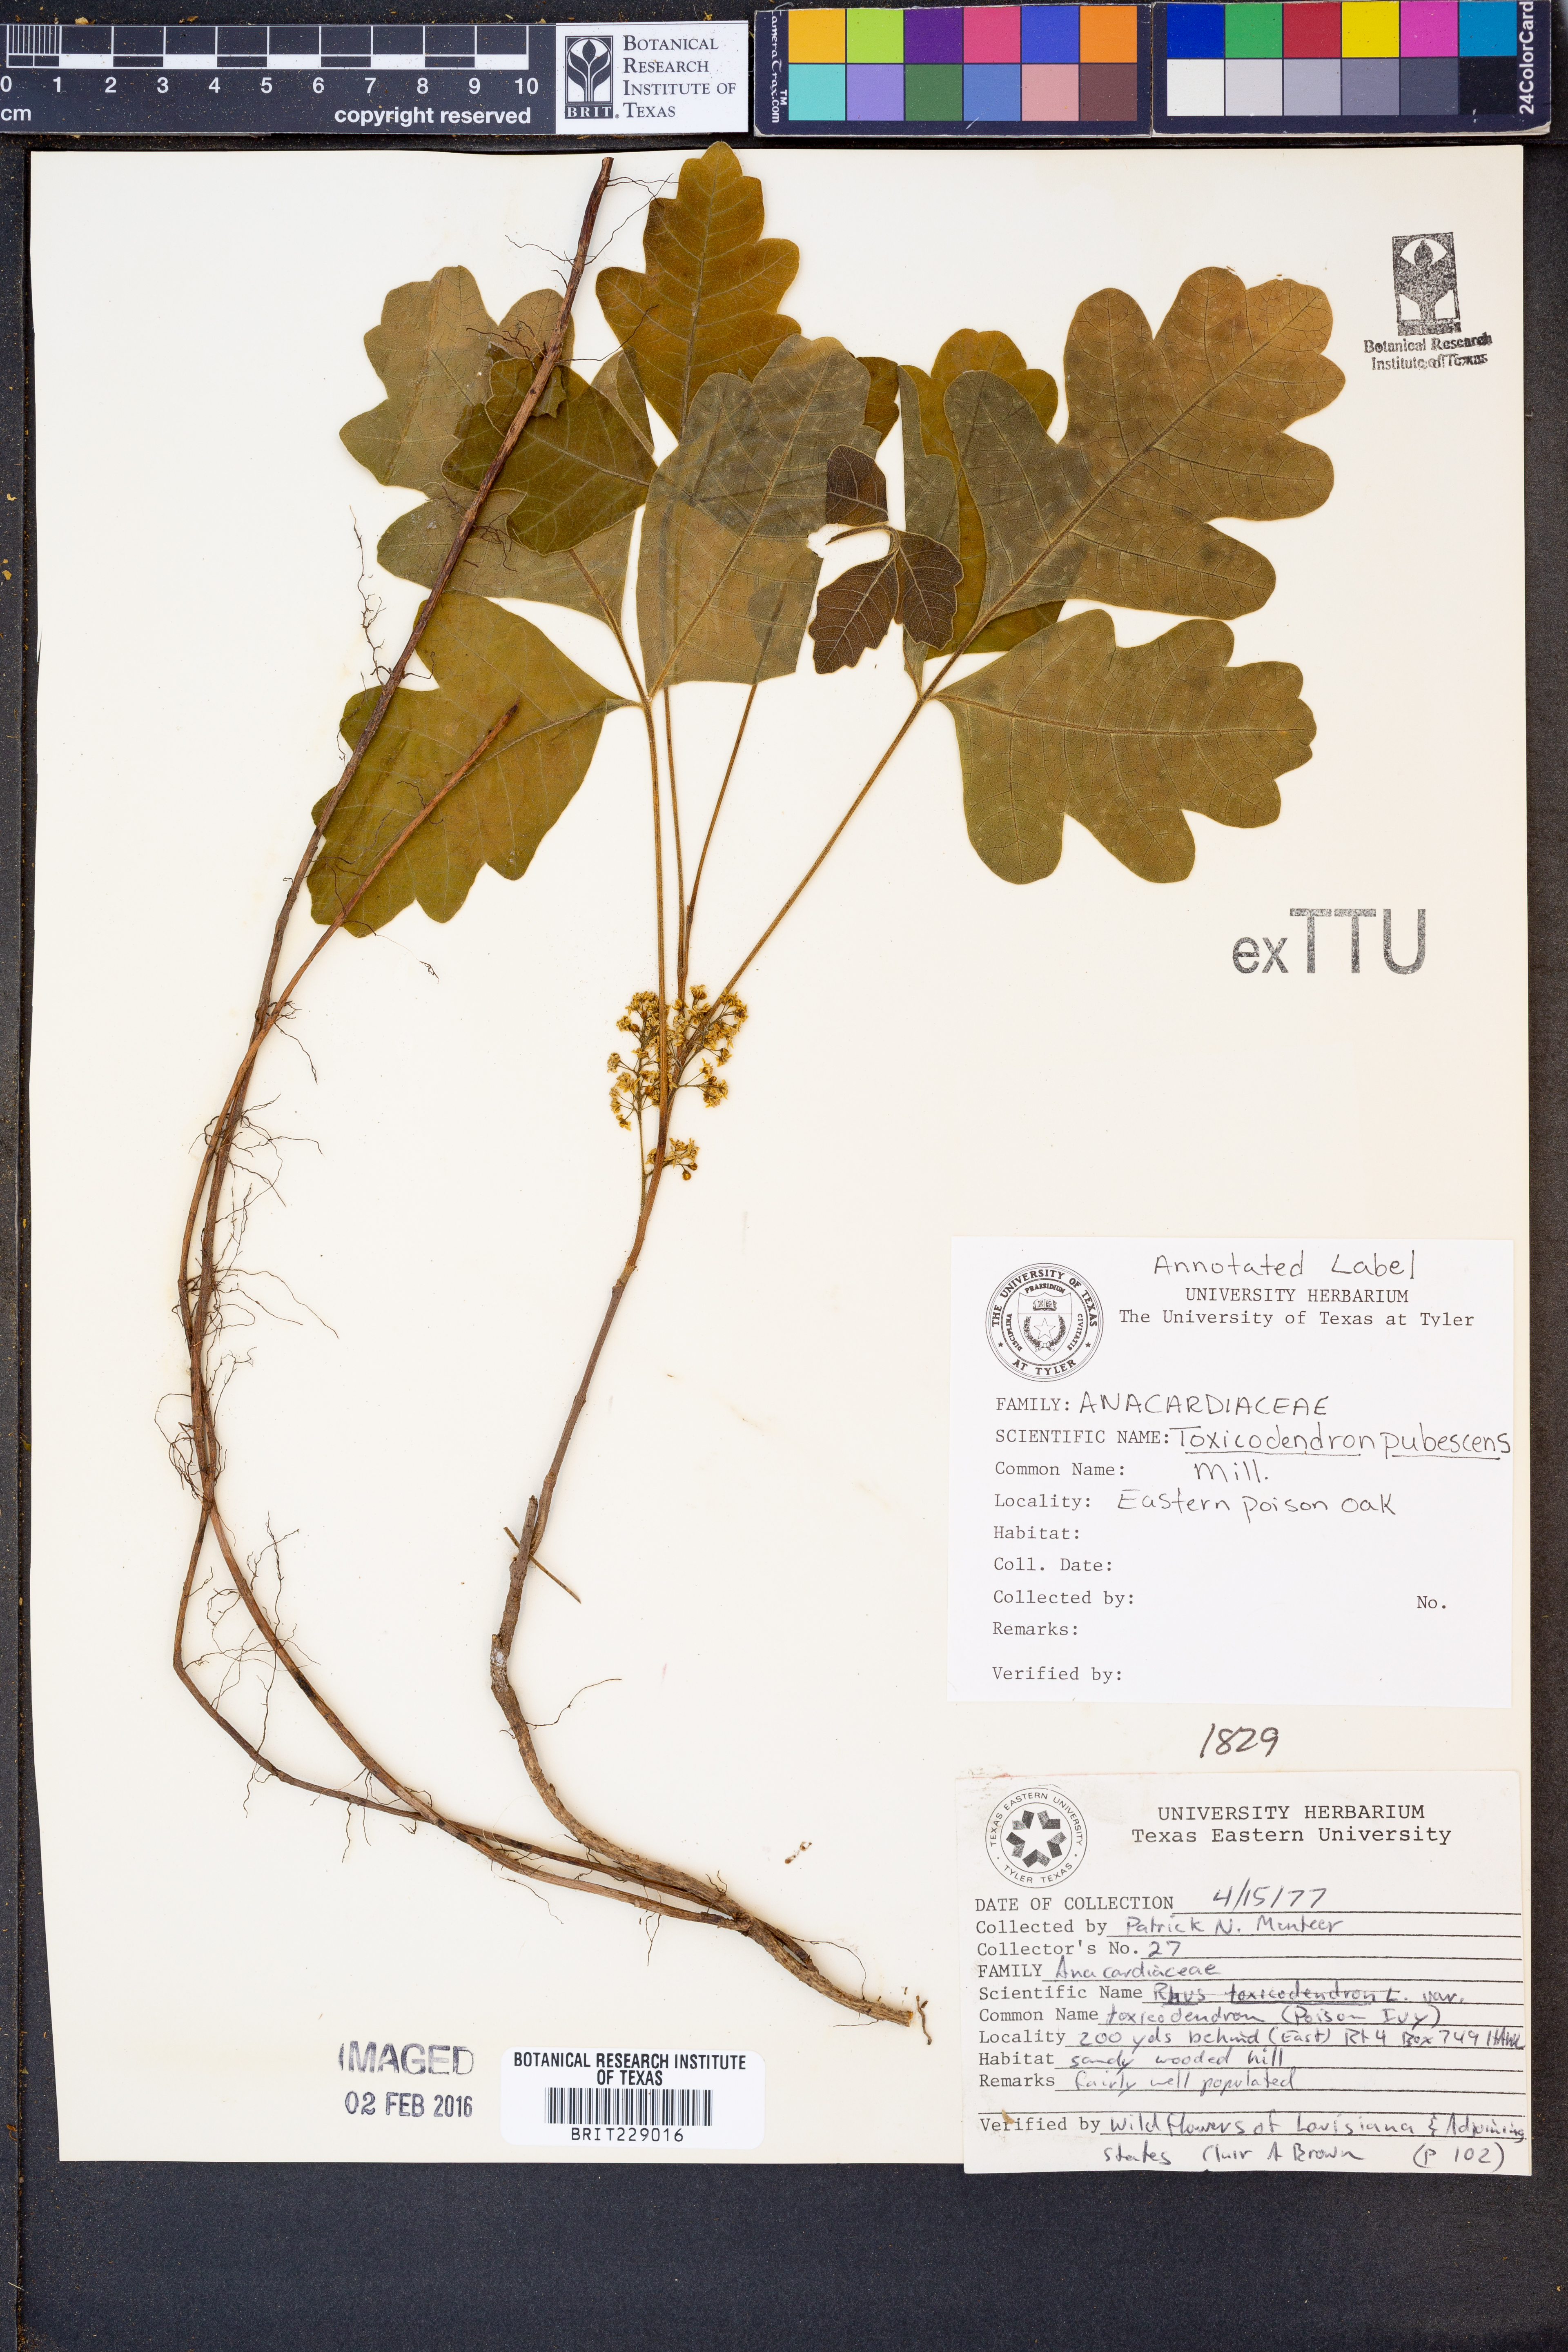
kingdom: Plantae
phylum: Tracheophyta
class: Magnoliopsida
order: Sapindales
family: Anacardiaceae
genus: Toxicodendron
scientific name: Toxicodendron pubescens
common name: Eastern poison-oak
